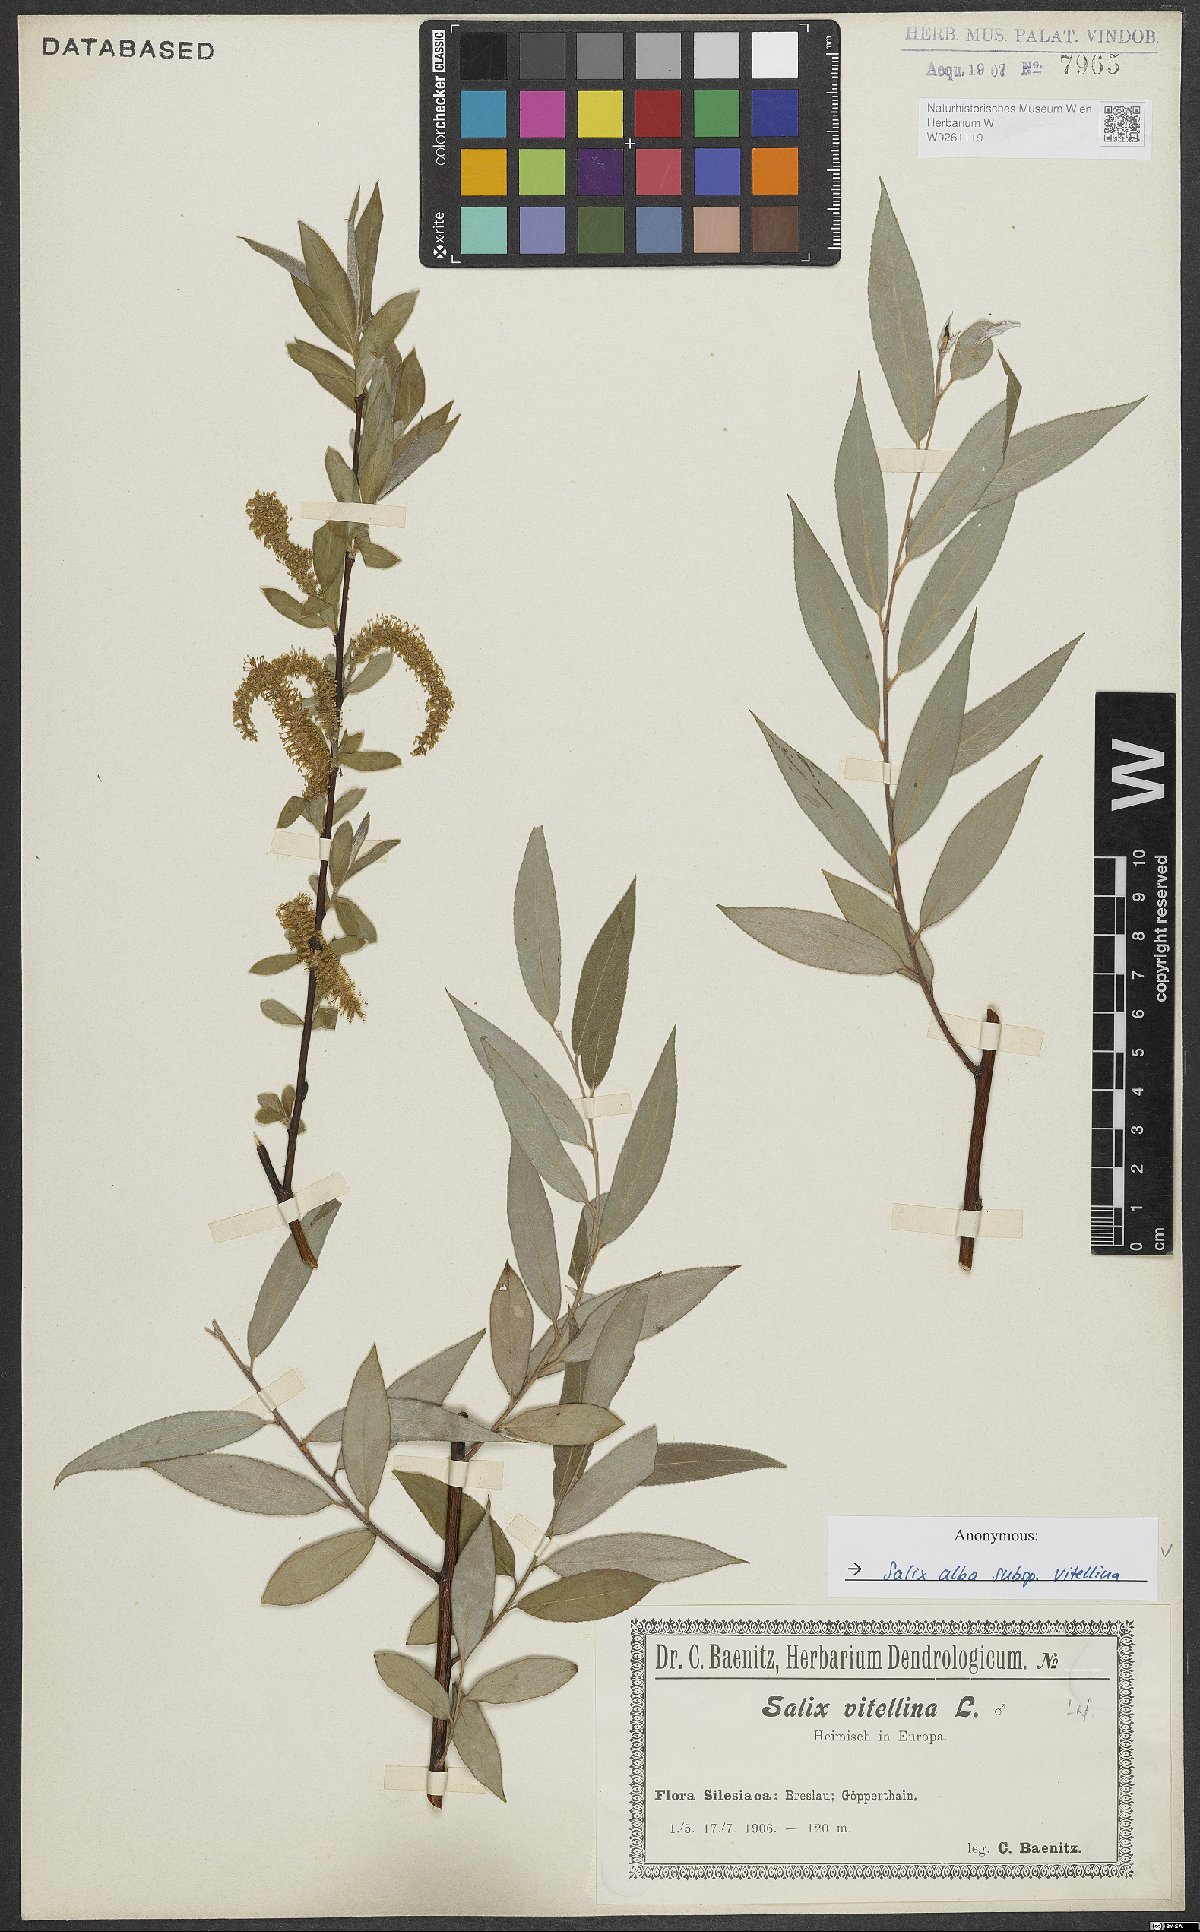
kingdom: Plantae
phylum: Tracheophyta
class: Magnoliopsida
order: Malpighiales
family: Salicaceae
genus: Salix
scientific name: Salix alba
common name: White willow
